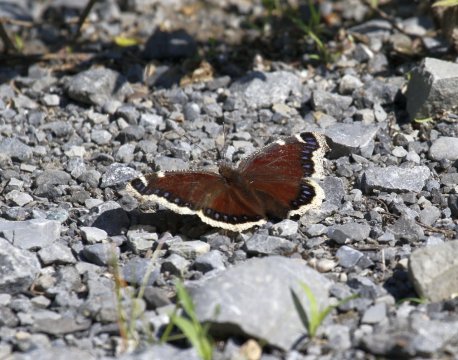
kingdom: Animalia
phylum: Arthropoda
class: Insecta
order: Lepidoptera
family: Nymphalidae
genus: Nymphalis
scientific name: Nymphalis antiopa
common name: Mourning Cloak
